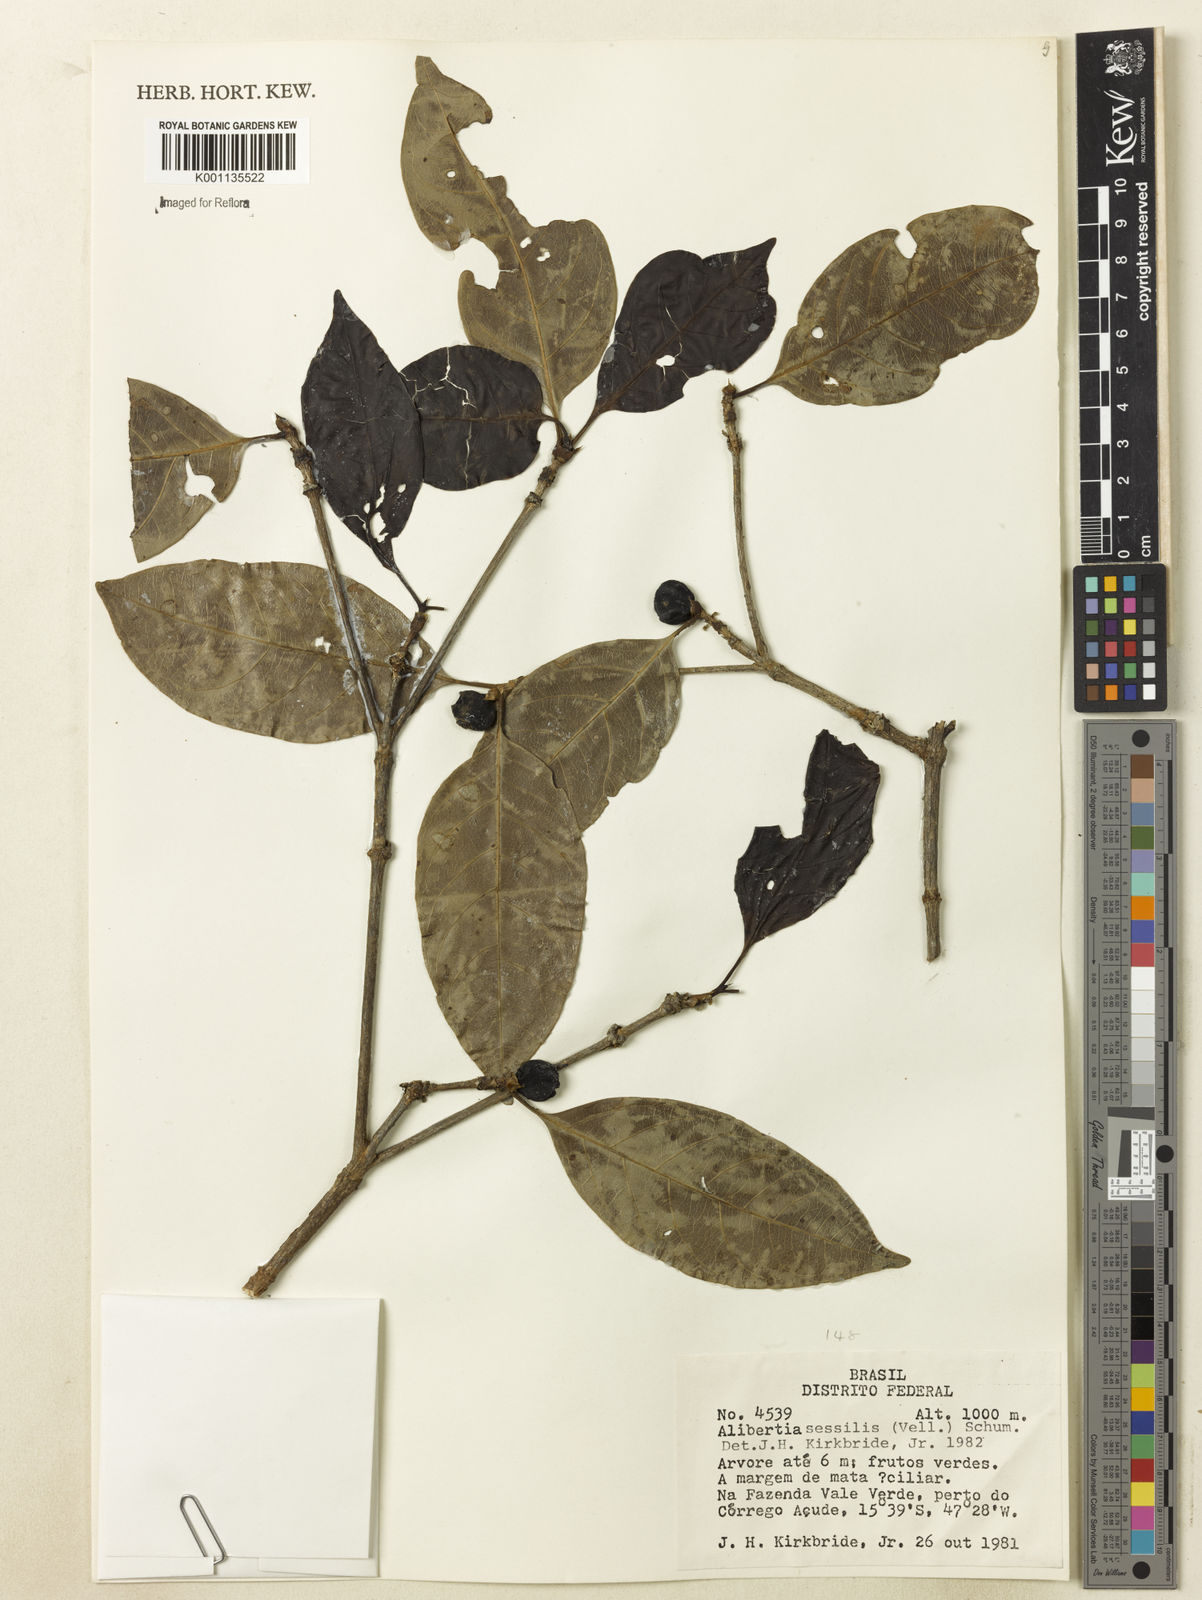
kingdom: Plantae
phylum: Tracheophyta
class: Magnoliopsida
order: Gentianales
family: Rubiaceae
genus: Cordiera
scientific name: Cordiera sessilis
